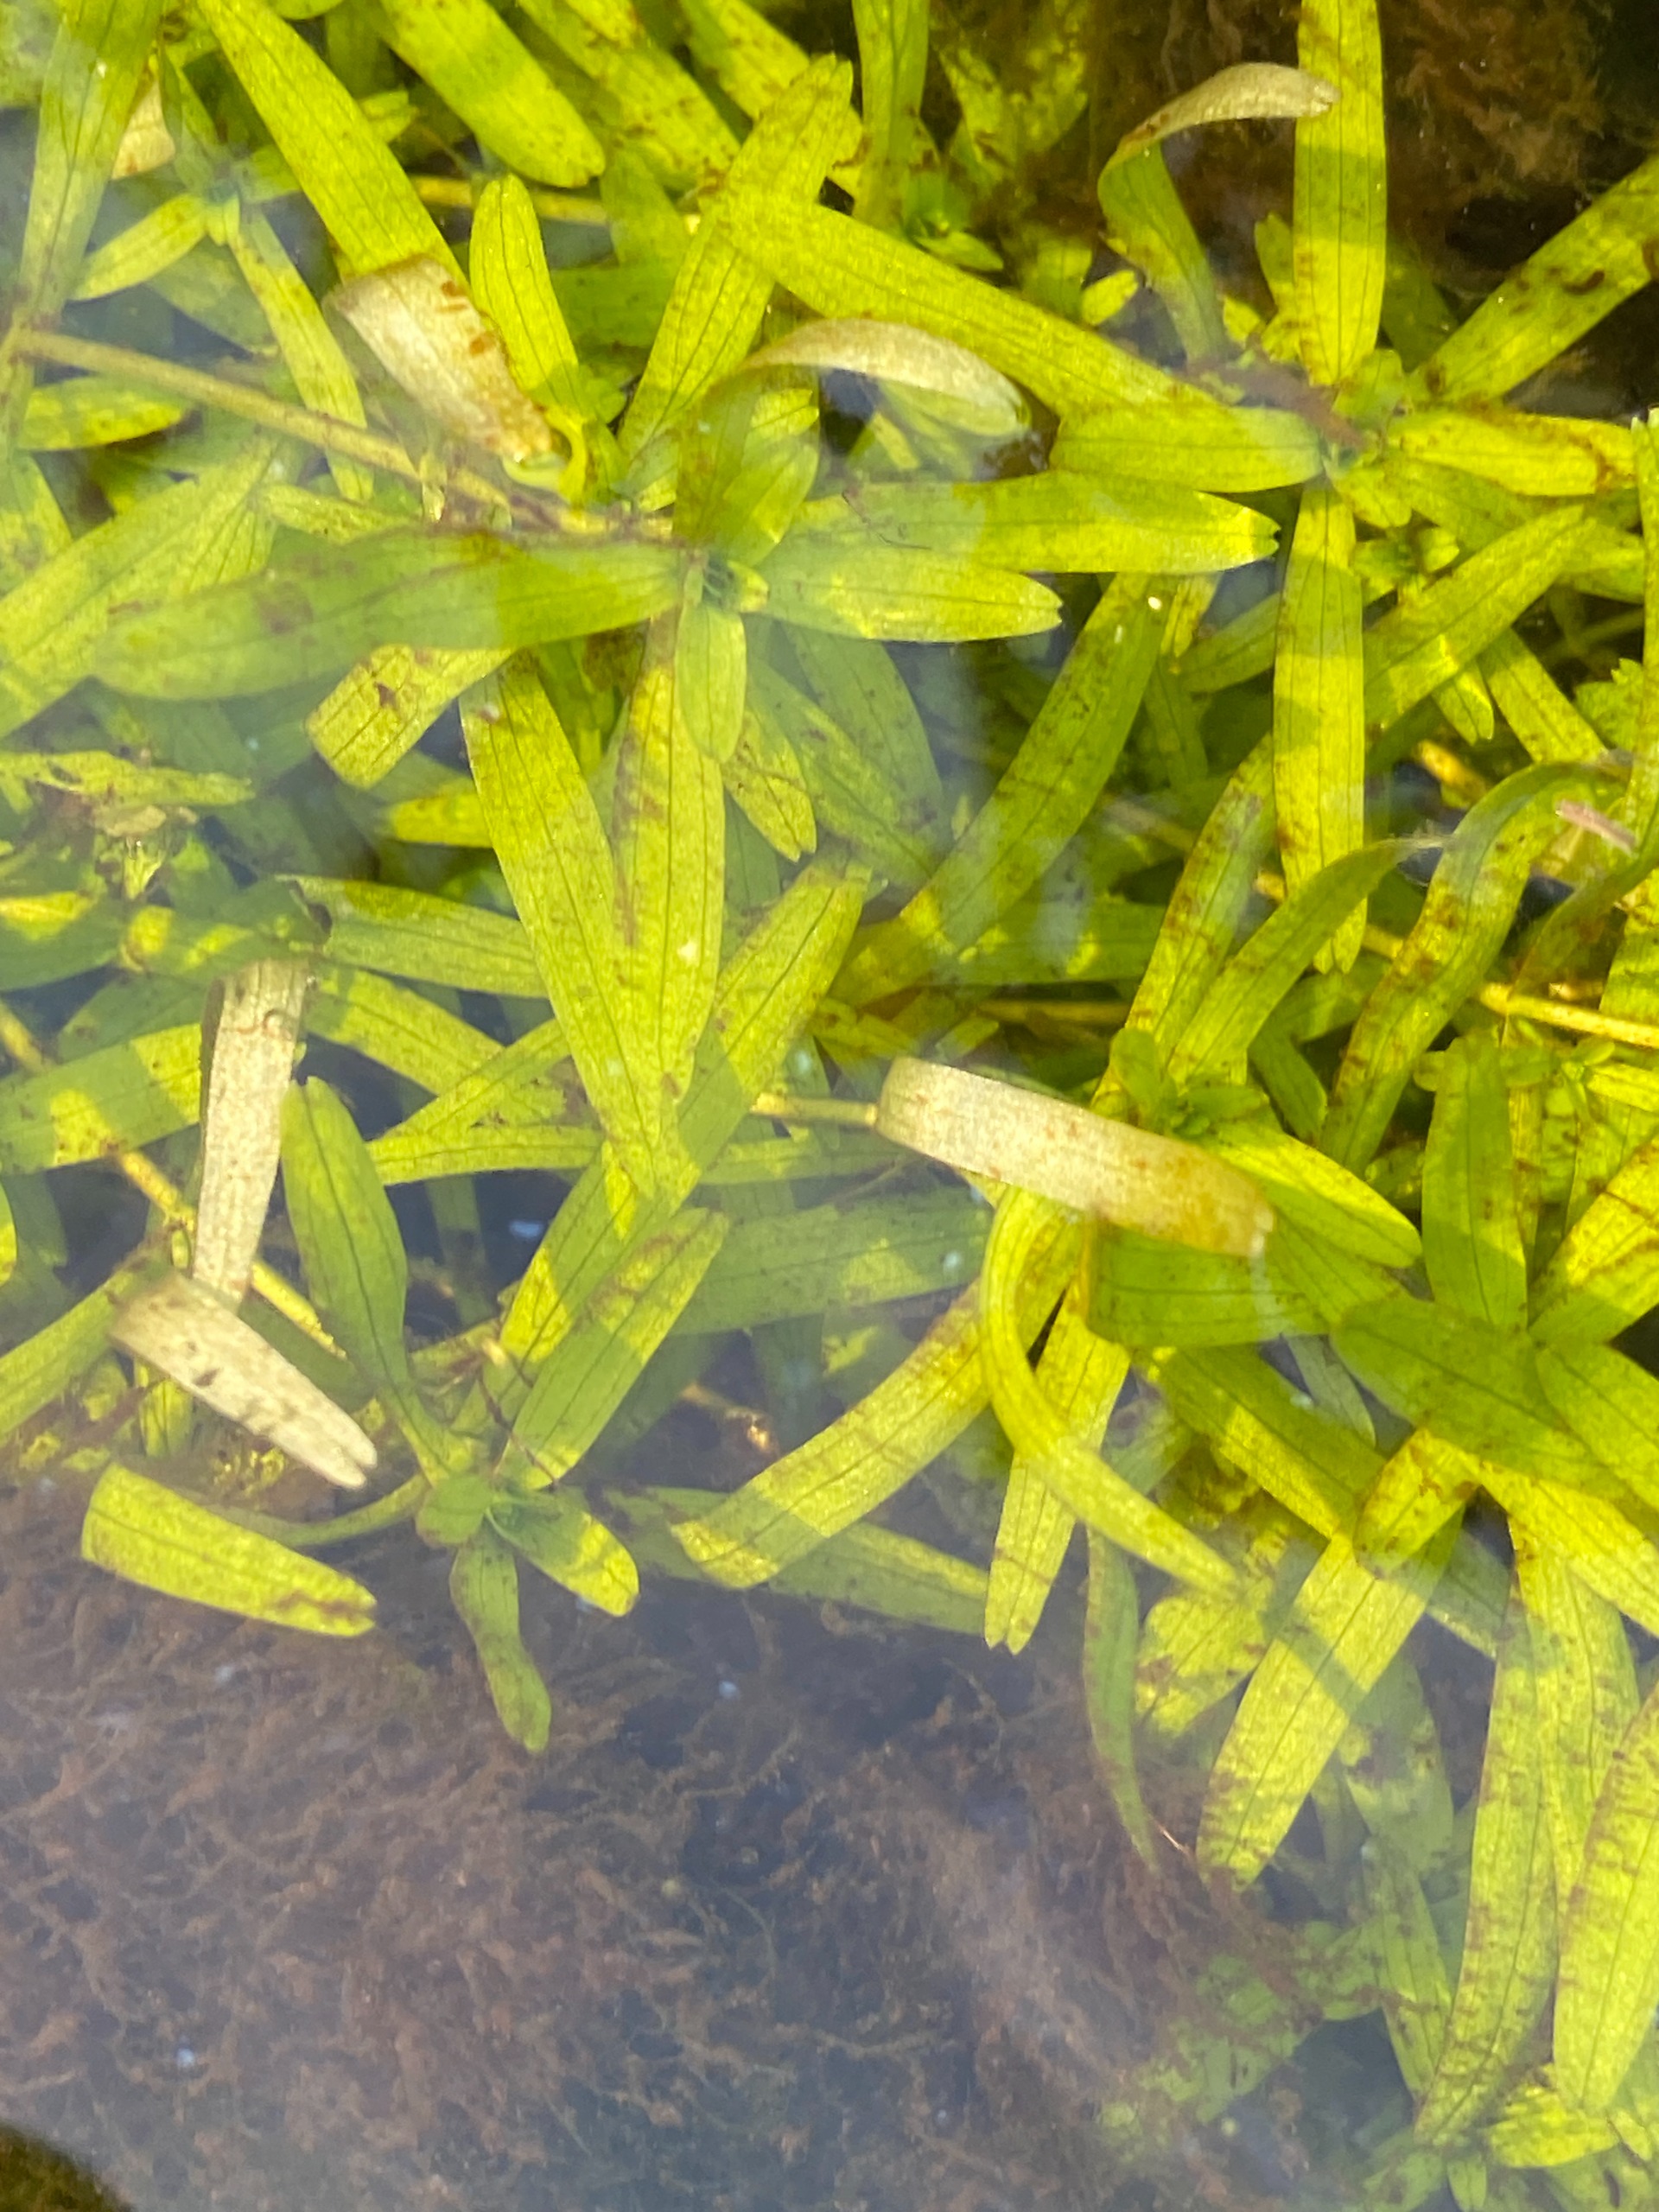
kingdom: Plantae
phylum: Tracheophyta
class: Magnoliopsida
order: Lamiales
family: Plantaginaceae
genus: Callitriche
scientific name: Callitriche
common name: Vandstjerneslægten
